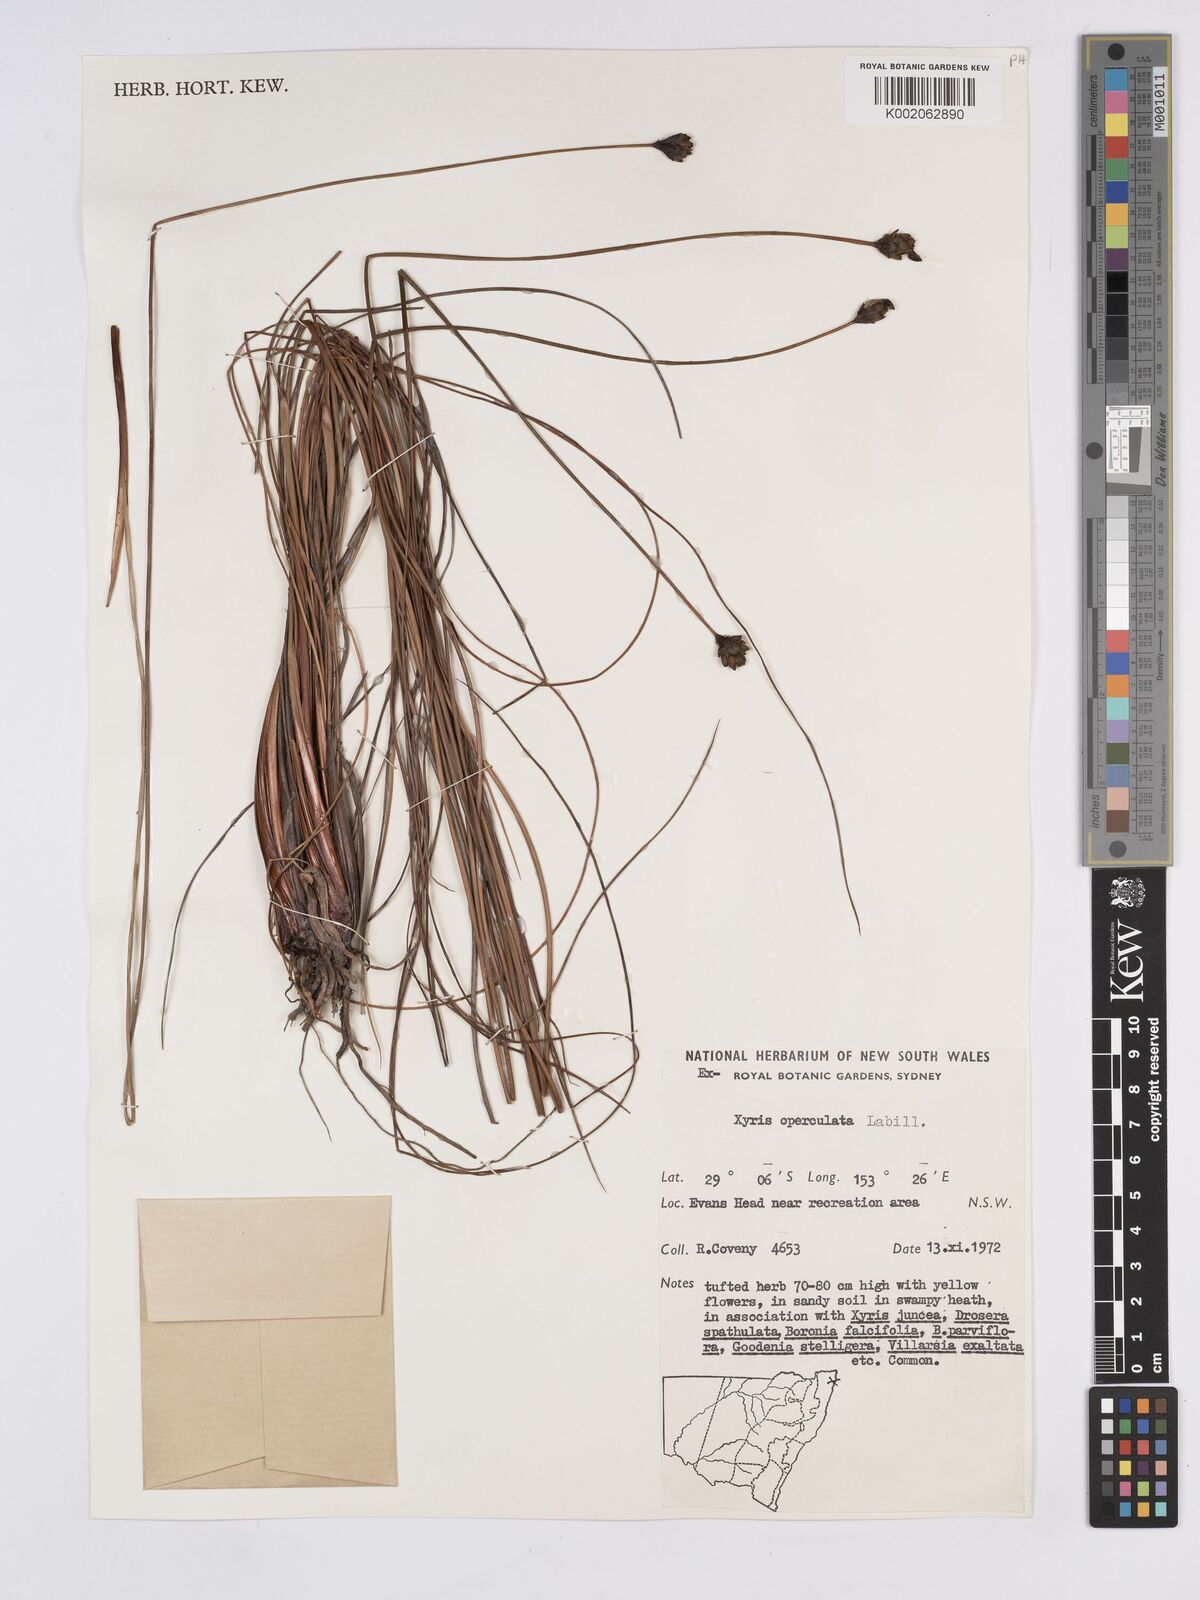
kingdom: Plantae
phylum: Tracheophyta
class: Liliopsida
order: Poales
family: Xyridaceae
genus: Xyris
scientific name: Xyris operculata
